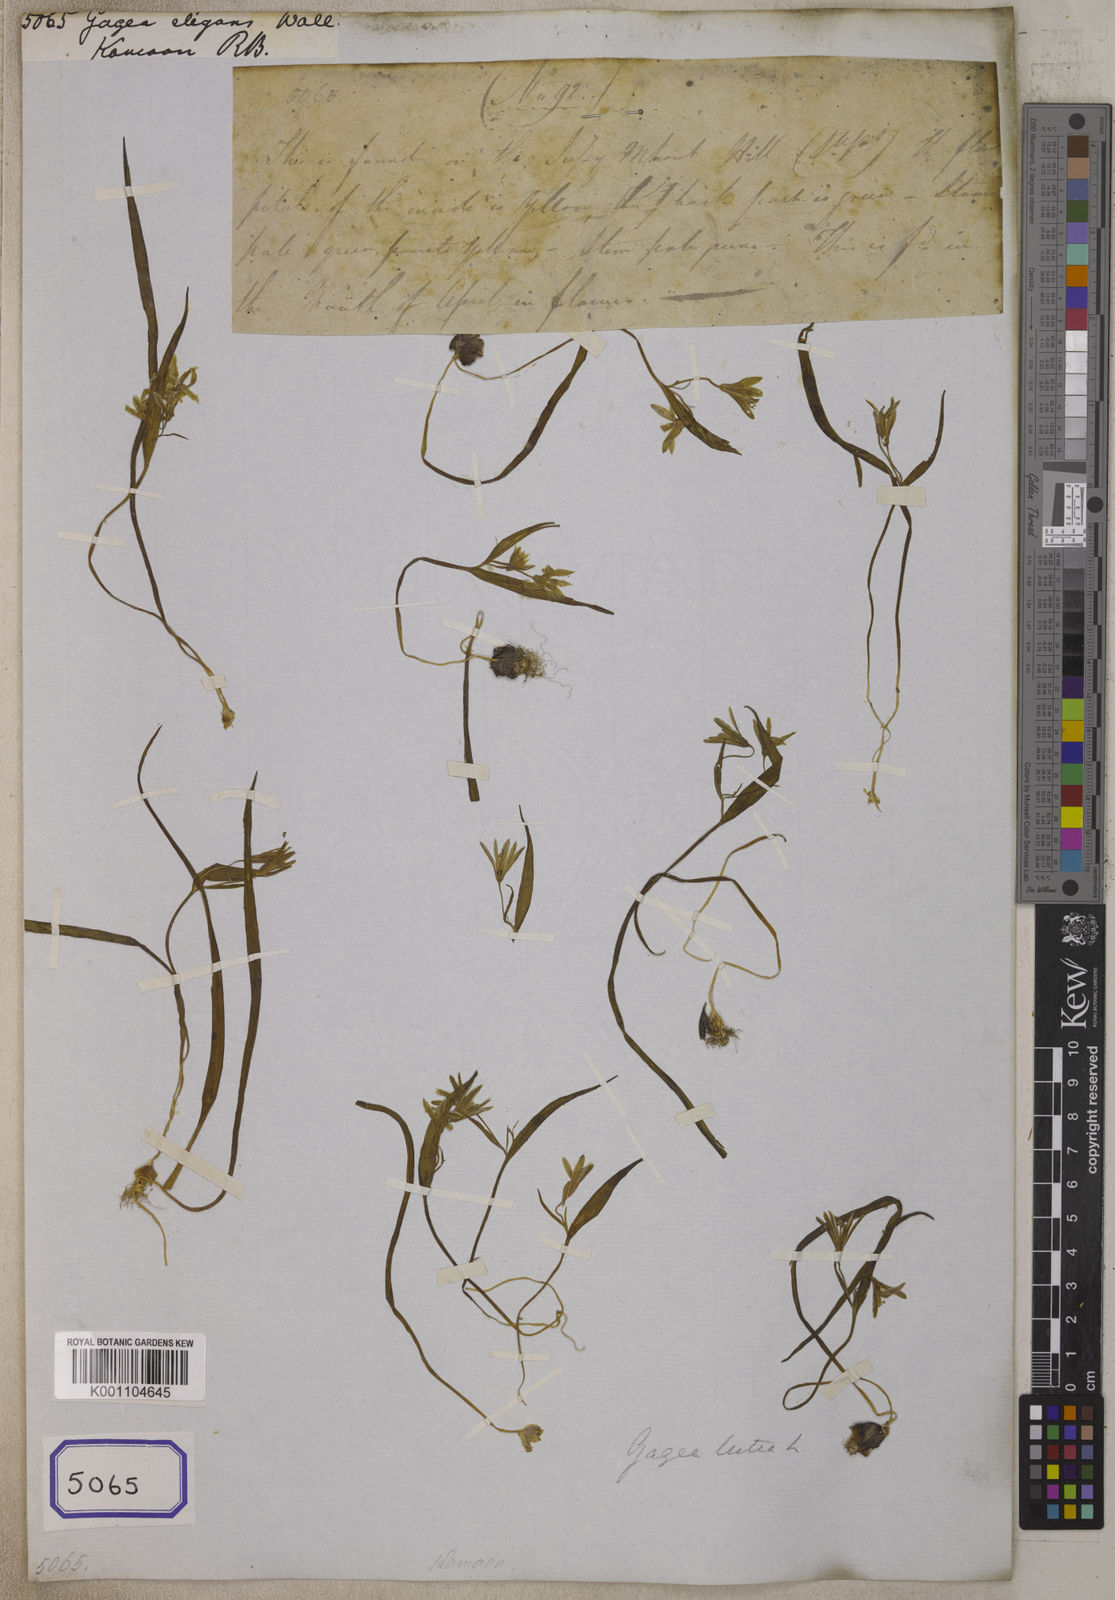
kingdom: Plantae
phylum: Tracheophyta
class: Liliopsida
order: Liliales
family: Liliaceae
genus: Gagea
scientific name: Gagea
